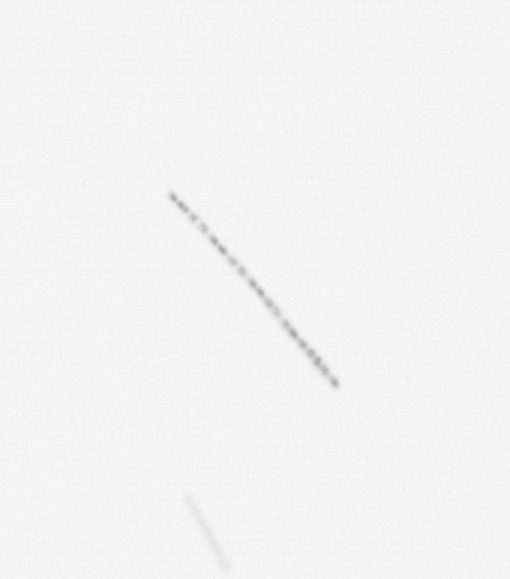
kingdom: Chromista
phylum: Ochrophyta
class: Bacillariophyceae
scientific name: Bacillariophyceae
